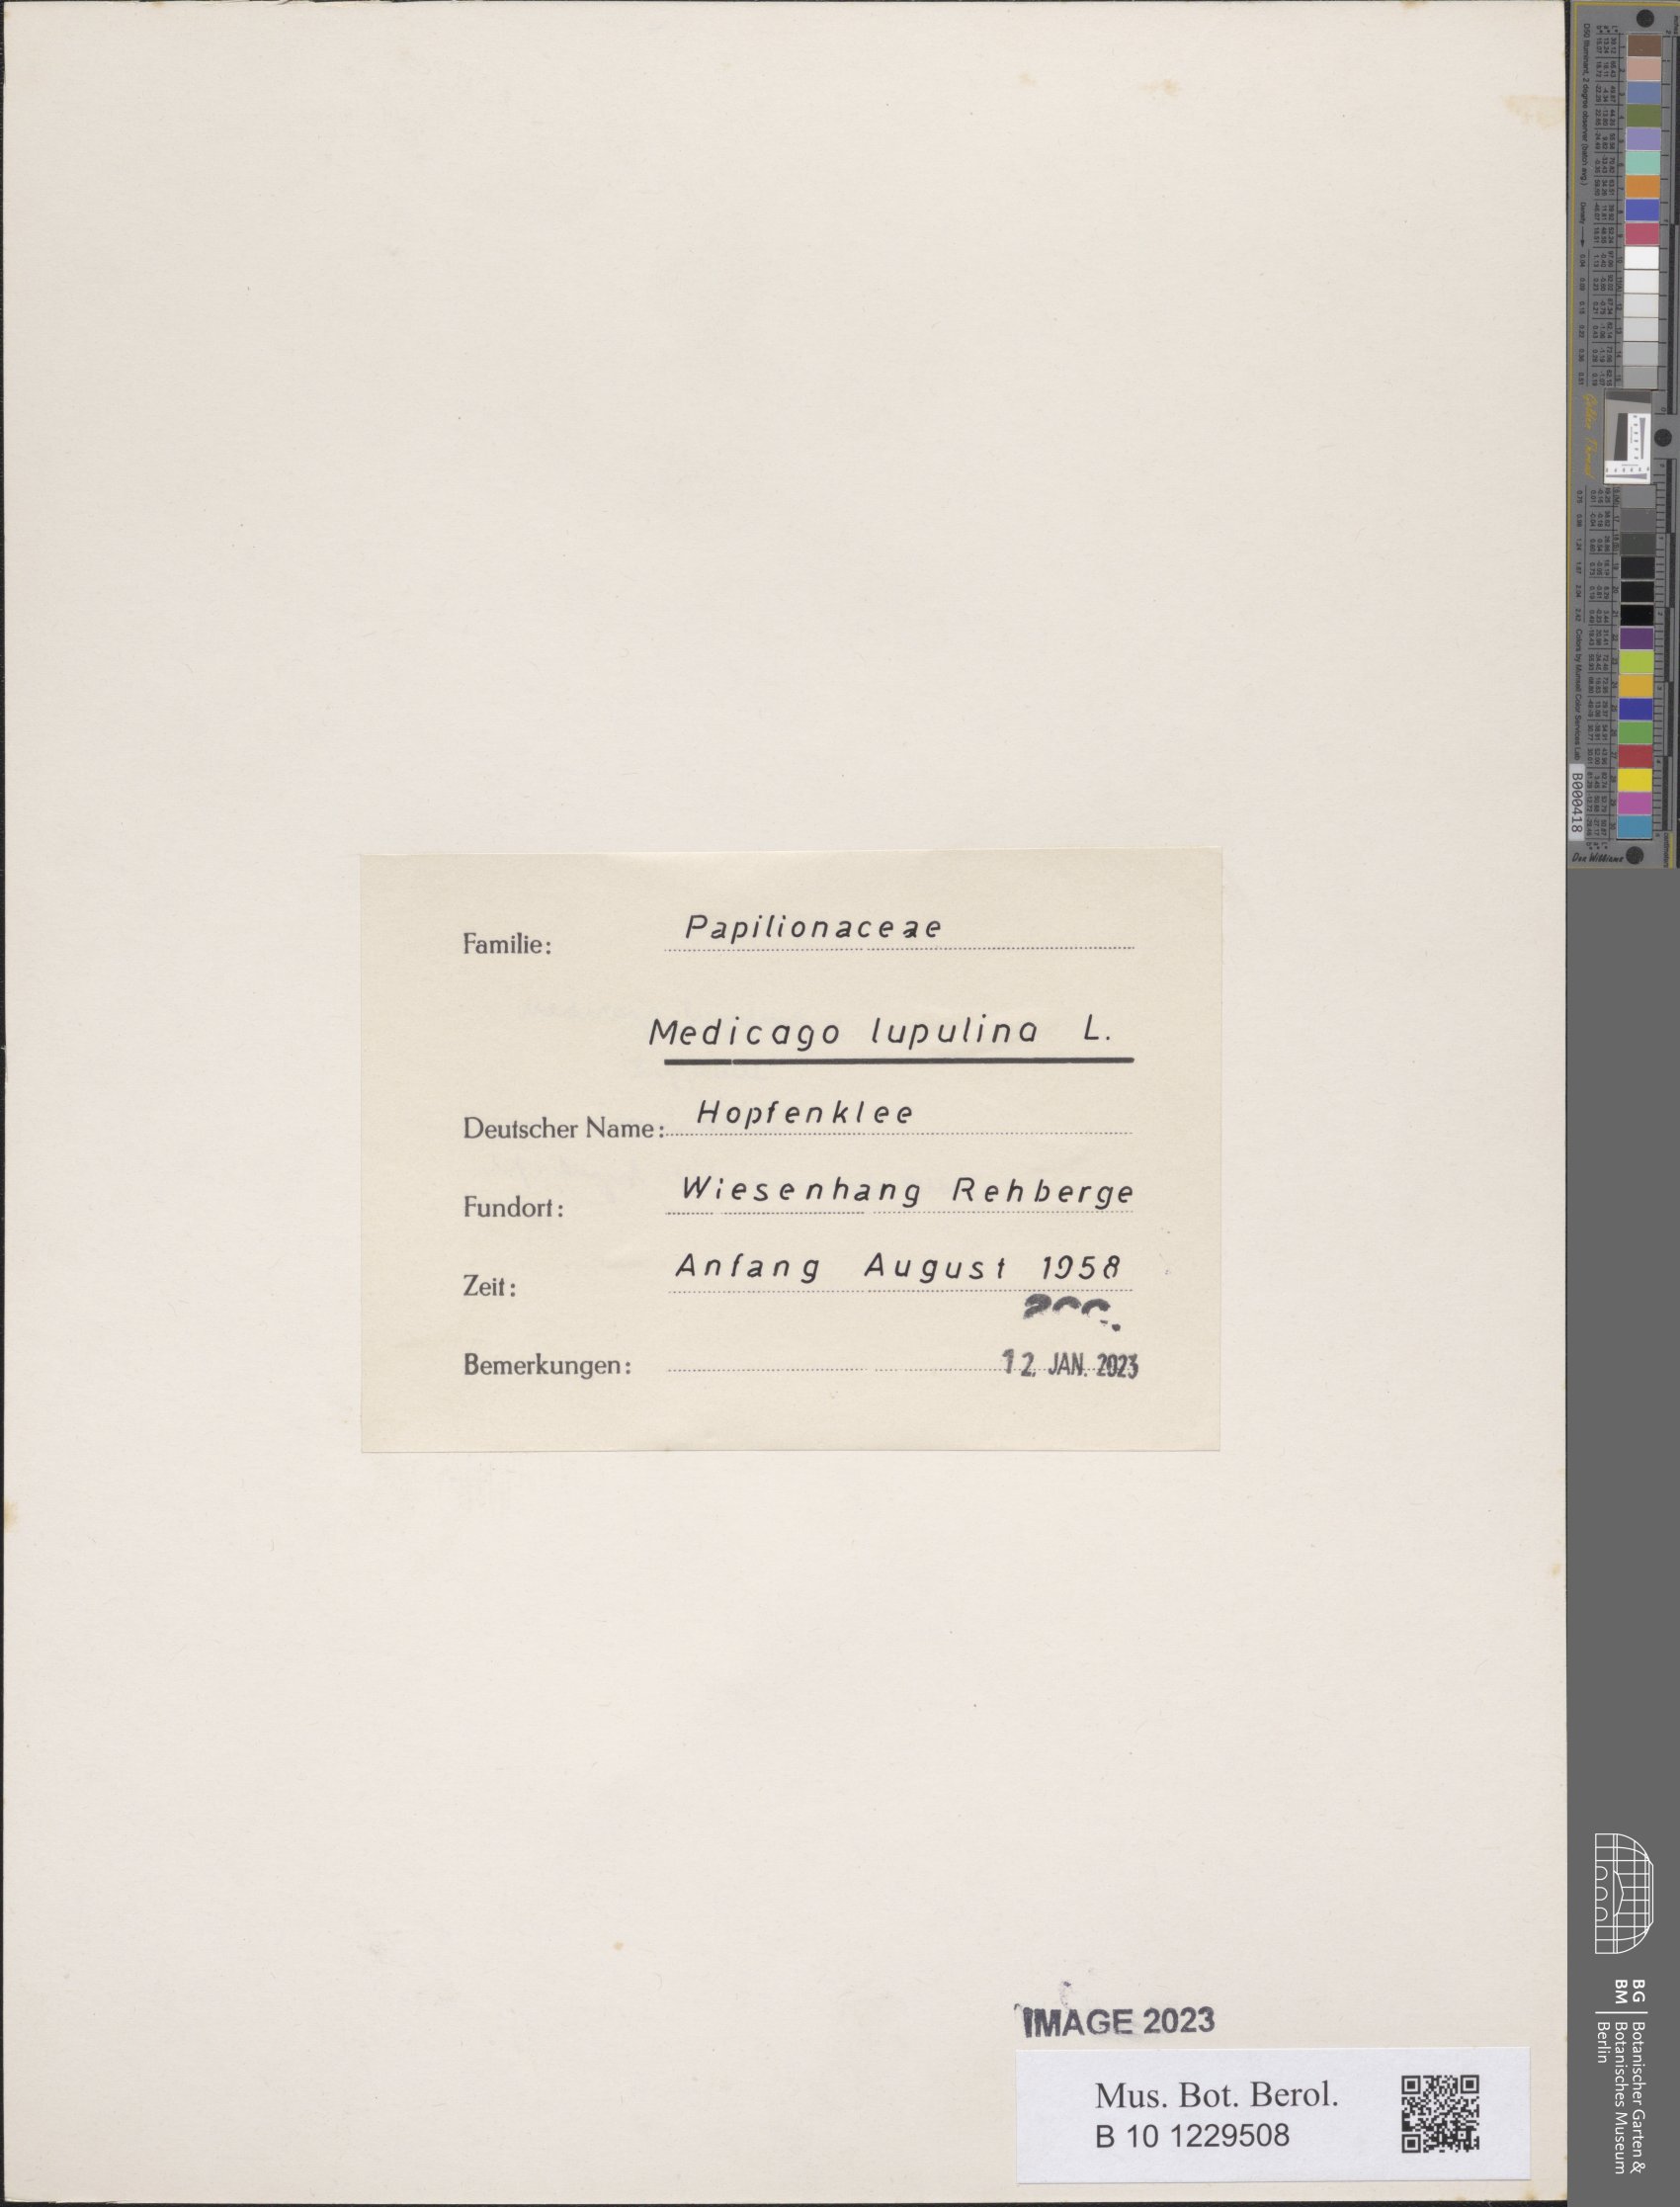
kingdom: Plantae
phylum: Tracheophyta
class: Magnoliopsida
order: Fabales
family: Fabaceae
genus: Medicago
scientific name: Medicago lupulina
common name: Black medick
